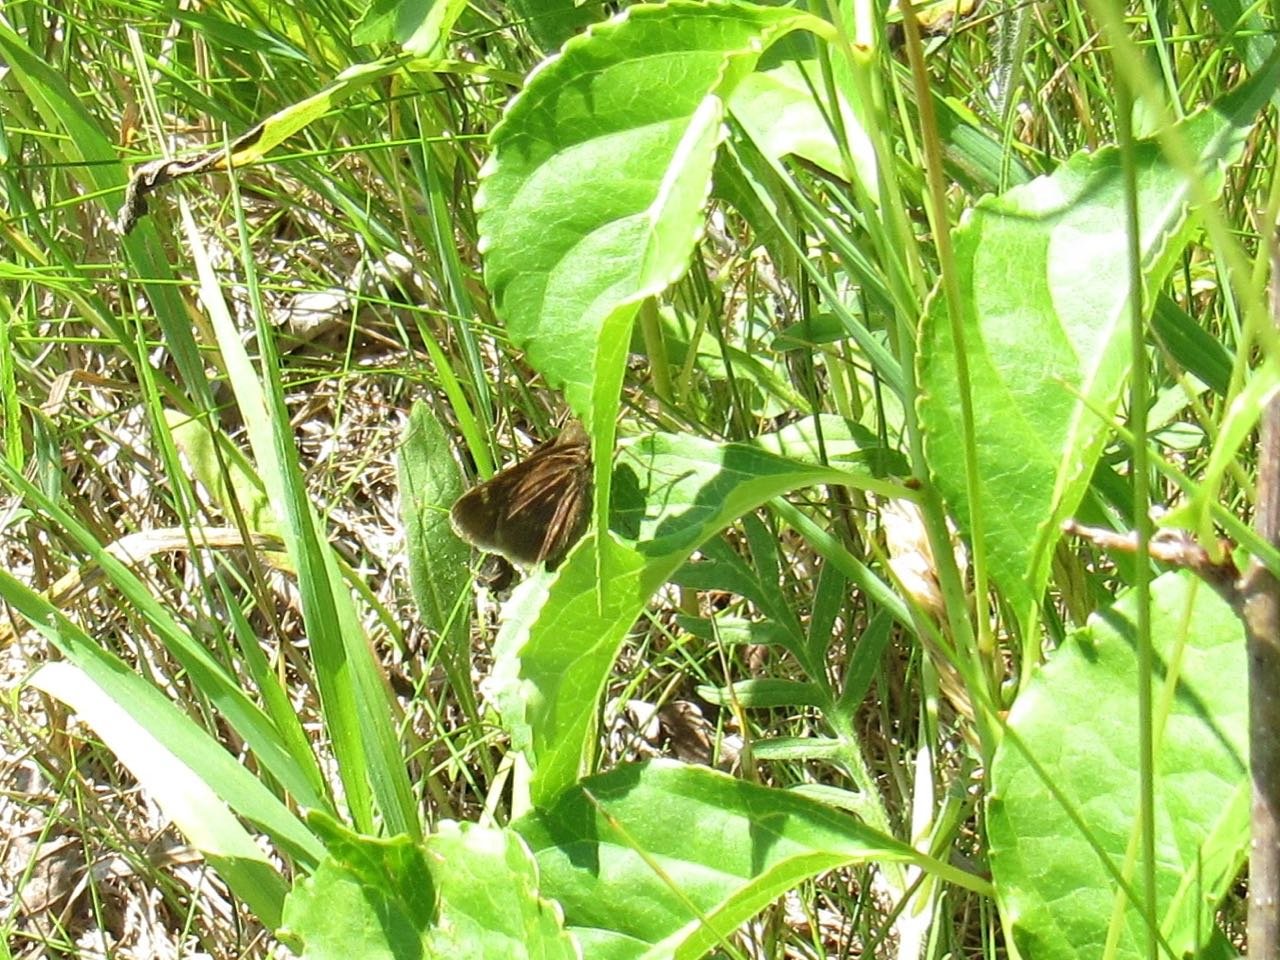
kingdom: Animalia
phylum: Arthropoda
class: Insecta
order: Lepidoptera
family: Hesperiidae
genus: Polites
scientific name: Polites egeremet
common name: Northern Broken-Dash
